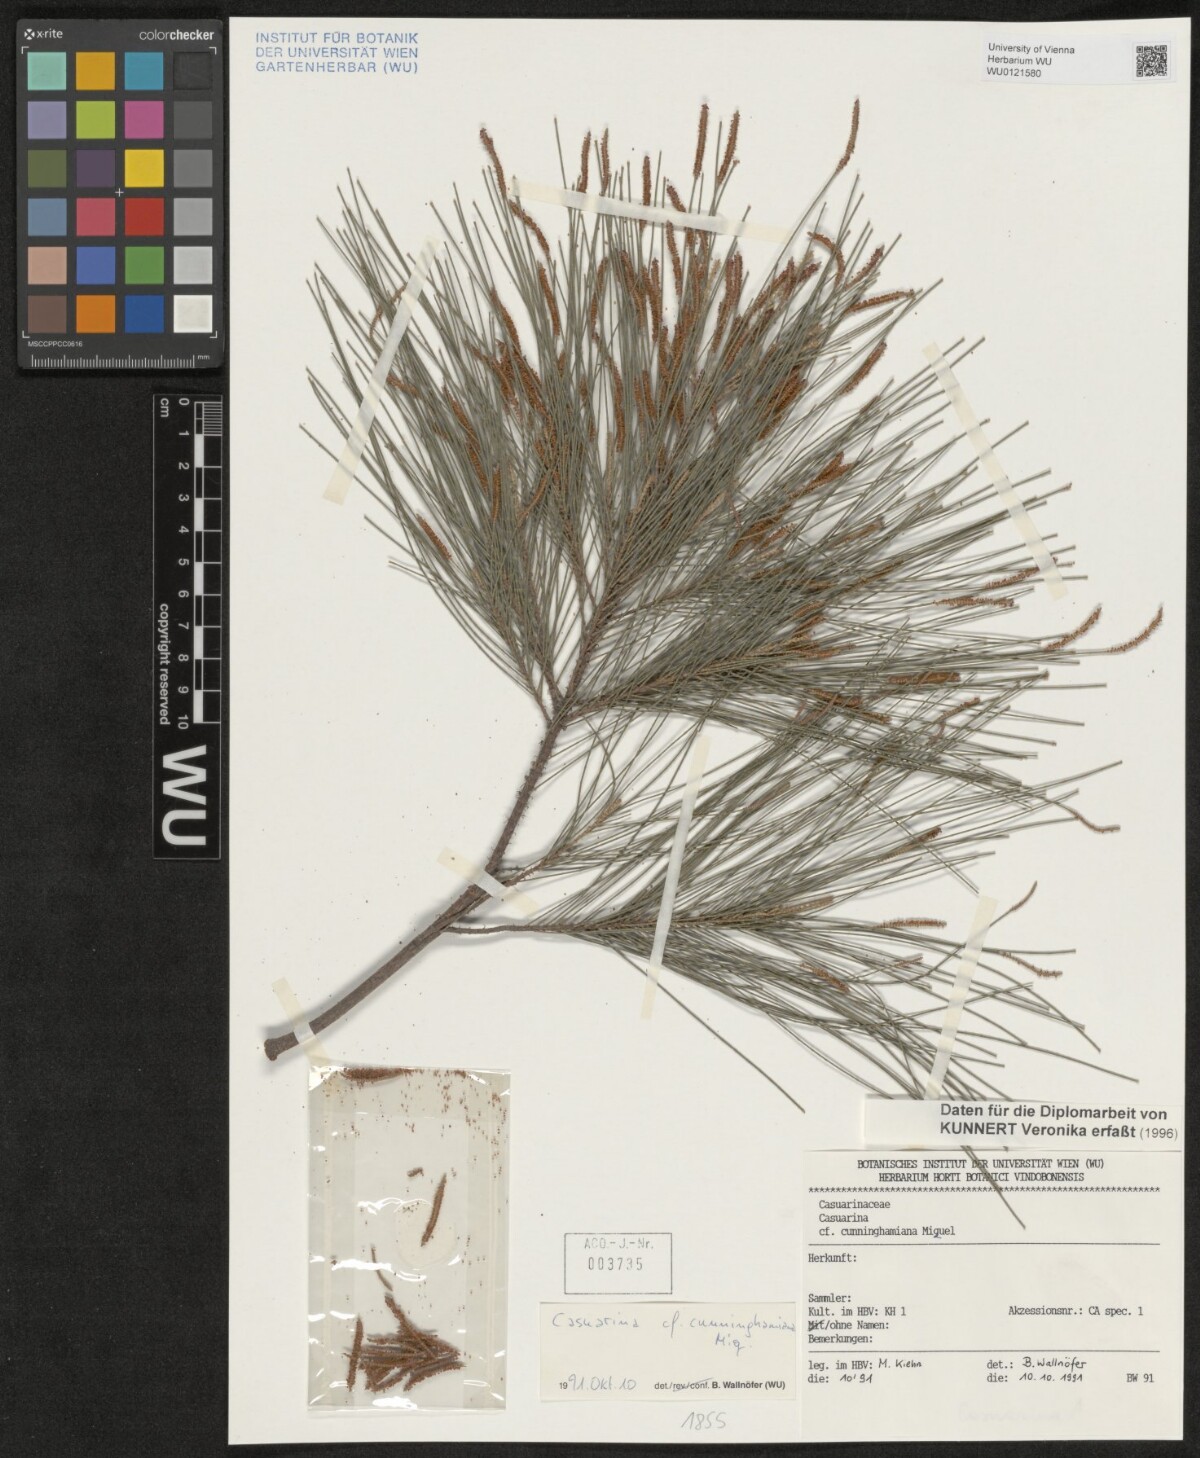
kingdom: Plantae
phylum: Tracheophyta
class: Magnoliopsida
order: Fagales
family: Casuarinaceae
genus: Casuarina
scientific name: Casuarina cunninghamiana
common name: River sheoak
